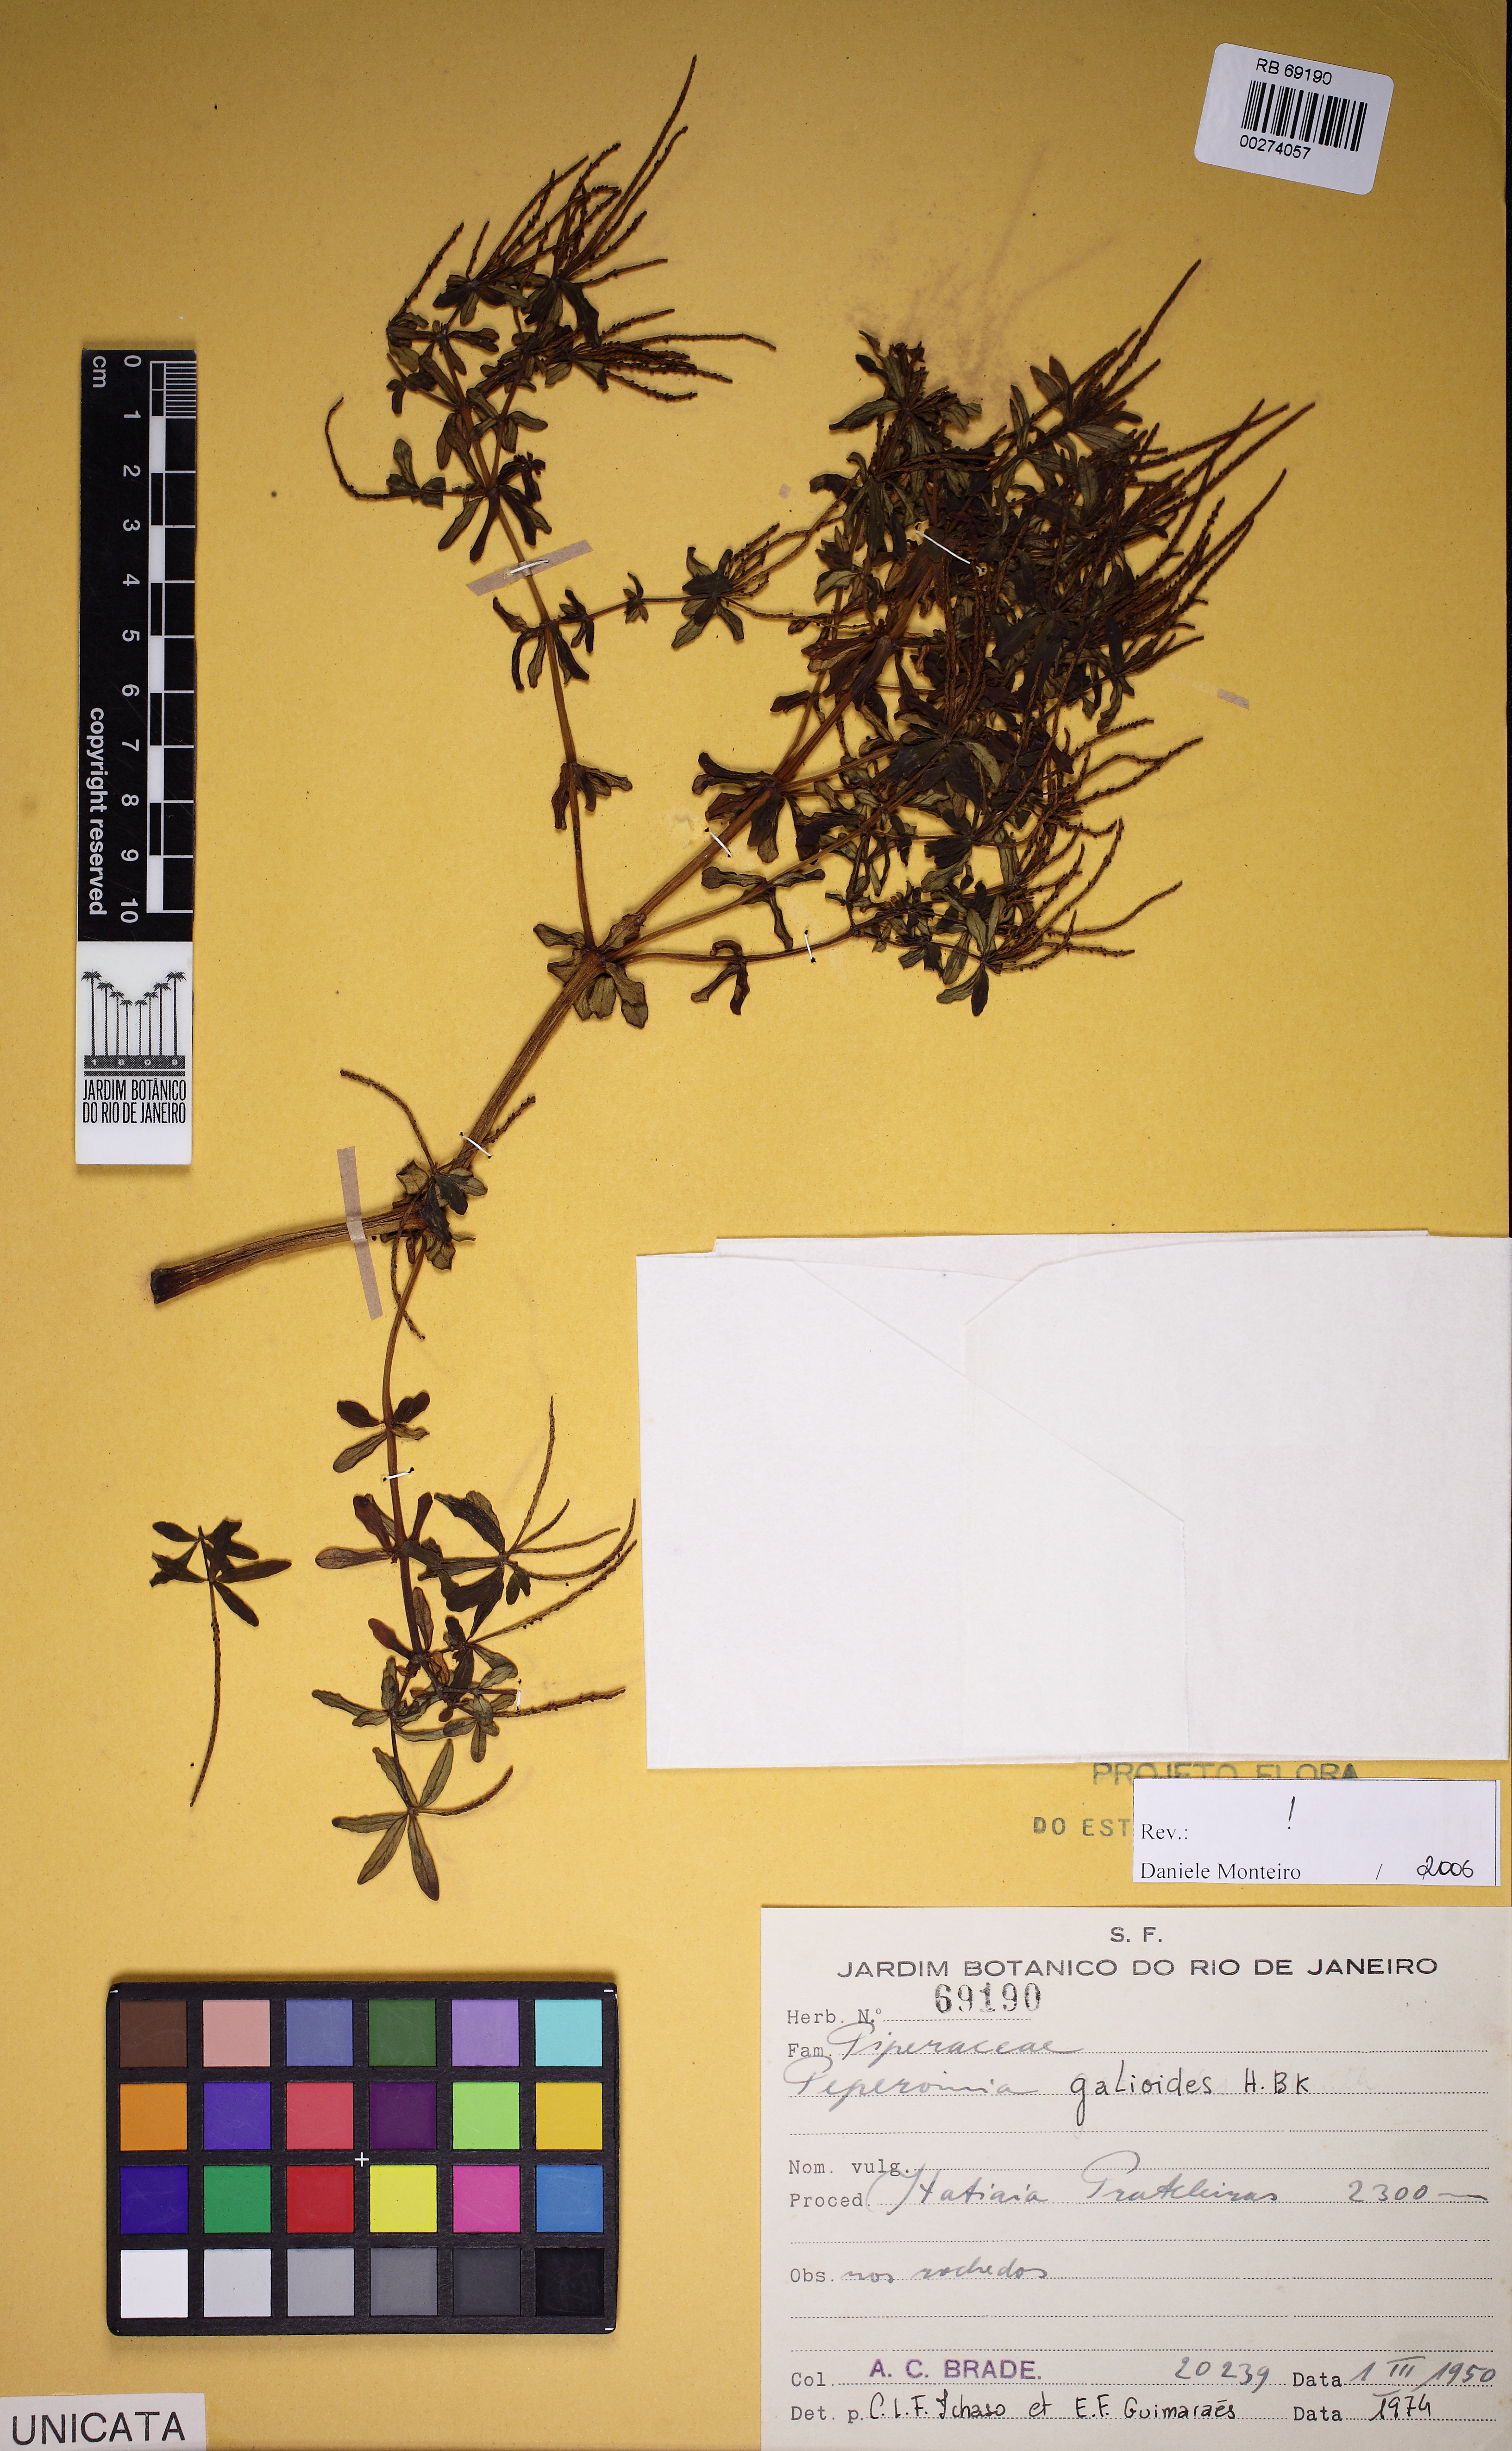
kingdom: Plantae
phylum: Tracheophyta
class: Magnoliopsida
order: Piperales
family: Piperaceae
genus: Peperomia
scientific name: Peperomia galioides
